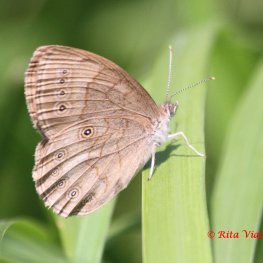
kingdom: Animalia
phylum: Arthropoda
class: Insecta
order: Lepidoptera
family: Nymphalidae
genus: Lethe
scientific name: Lethe eurydice
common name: Eyed Brown
